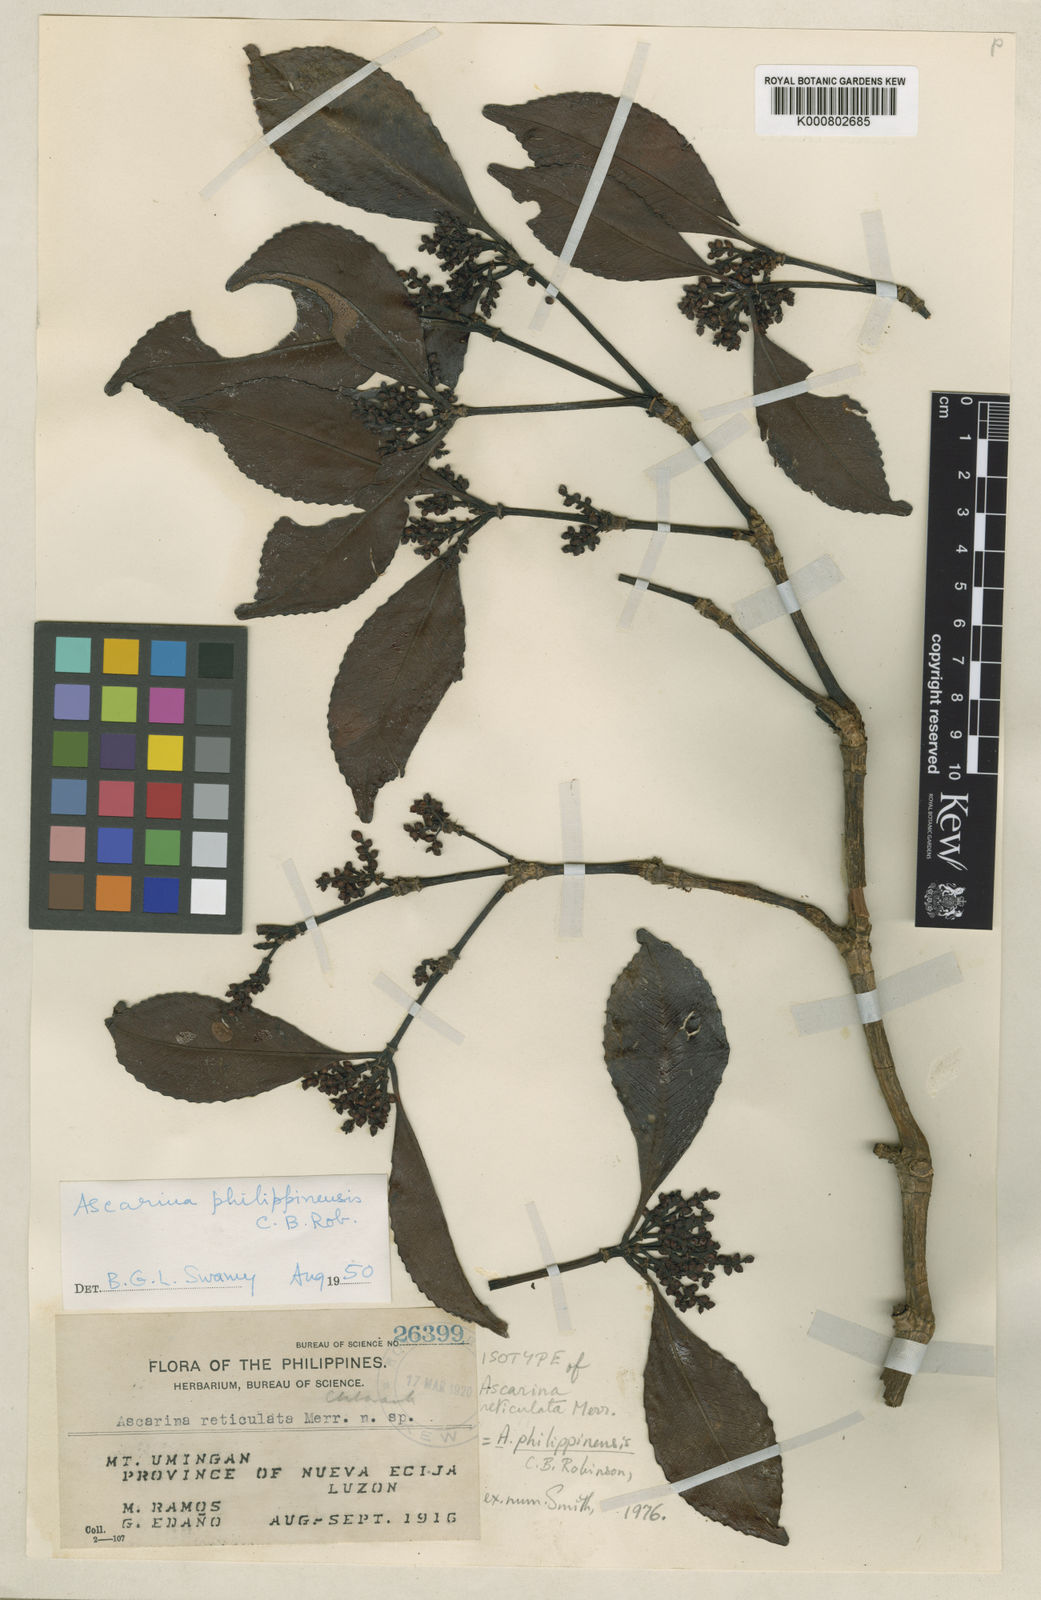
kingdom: Plantae
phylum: Tracheophyta
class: Magnoliopsida
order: Chloranthales
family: Chloranthaceae
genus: Ascarina
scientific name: Ascarina philippinensis
